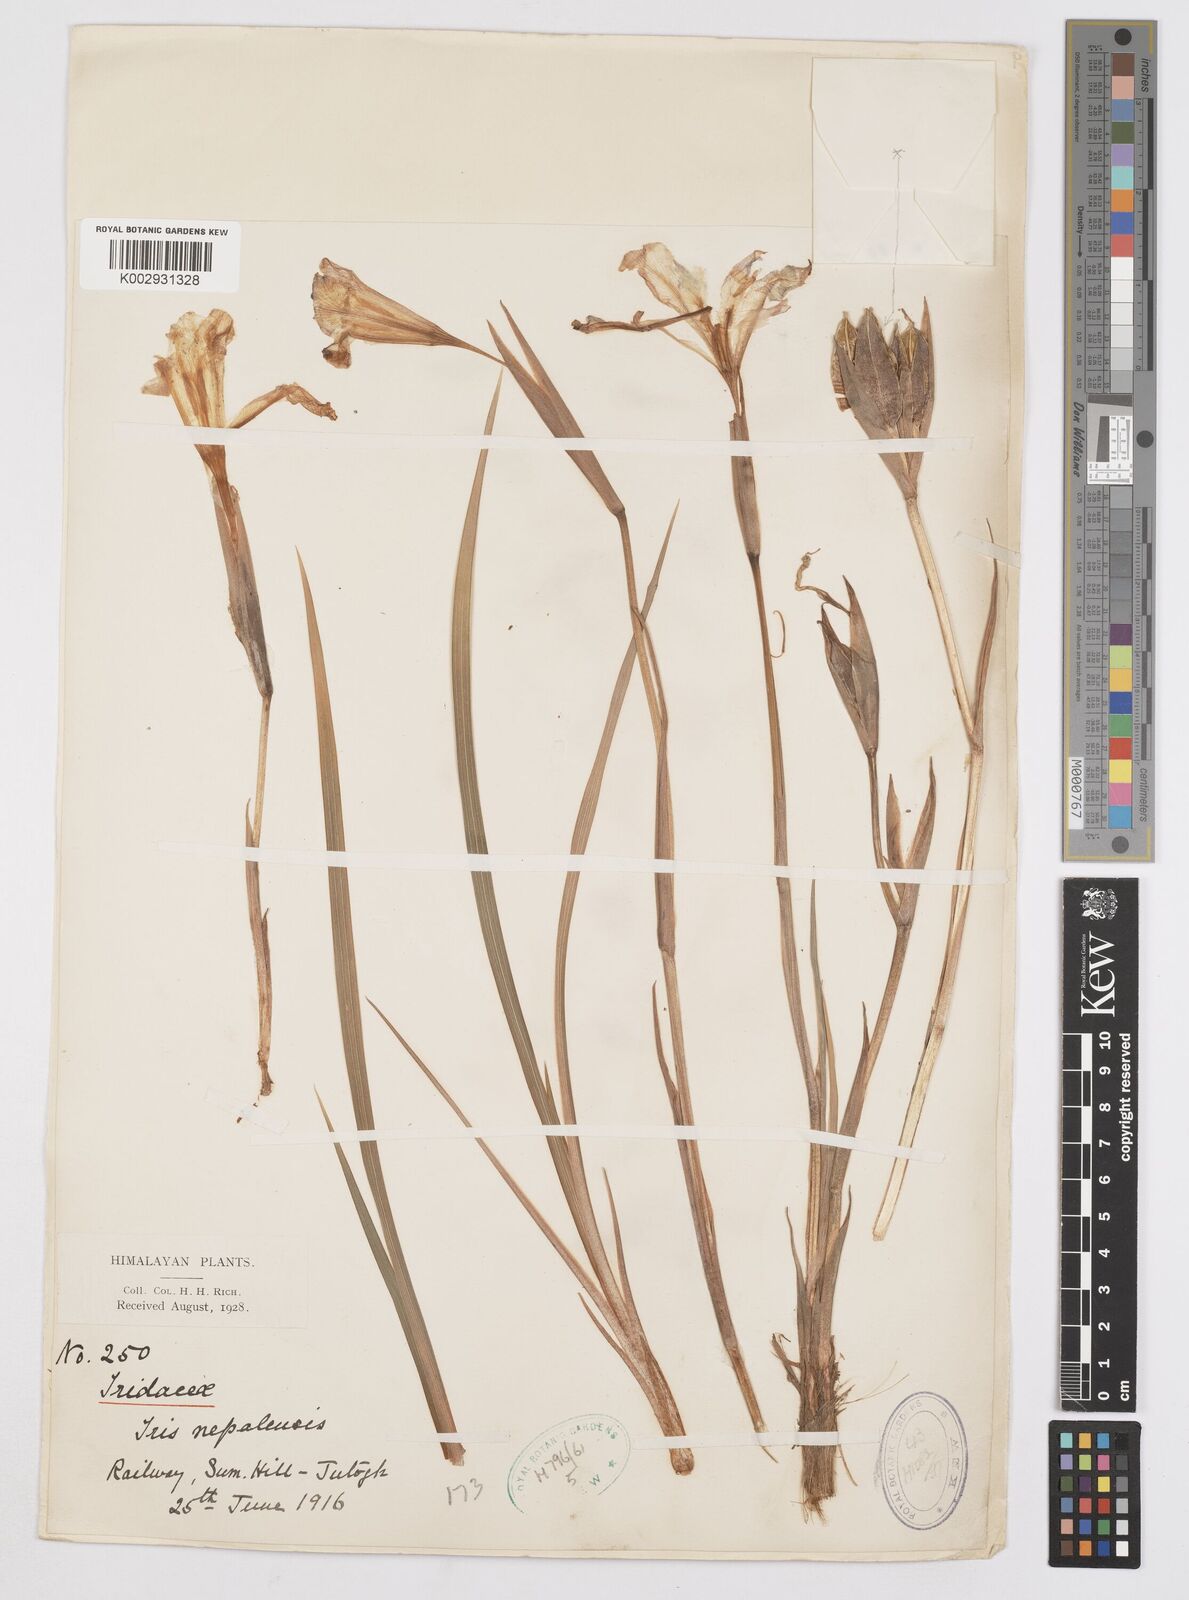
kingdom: Plantae
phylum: Tracheophyta
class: Liliopsida
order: Asparagales
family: Iridaceae
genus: Iris
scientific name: Iris decora
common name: Nepal iris
